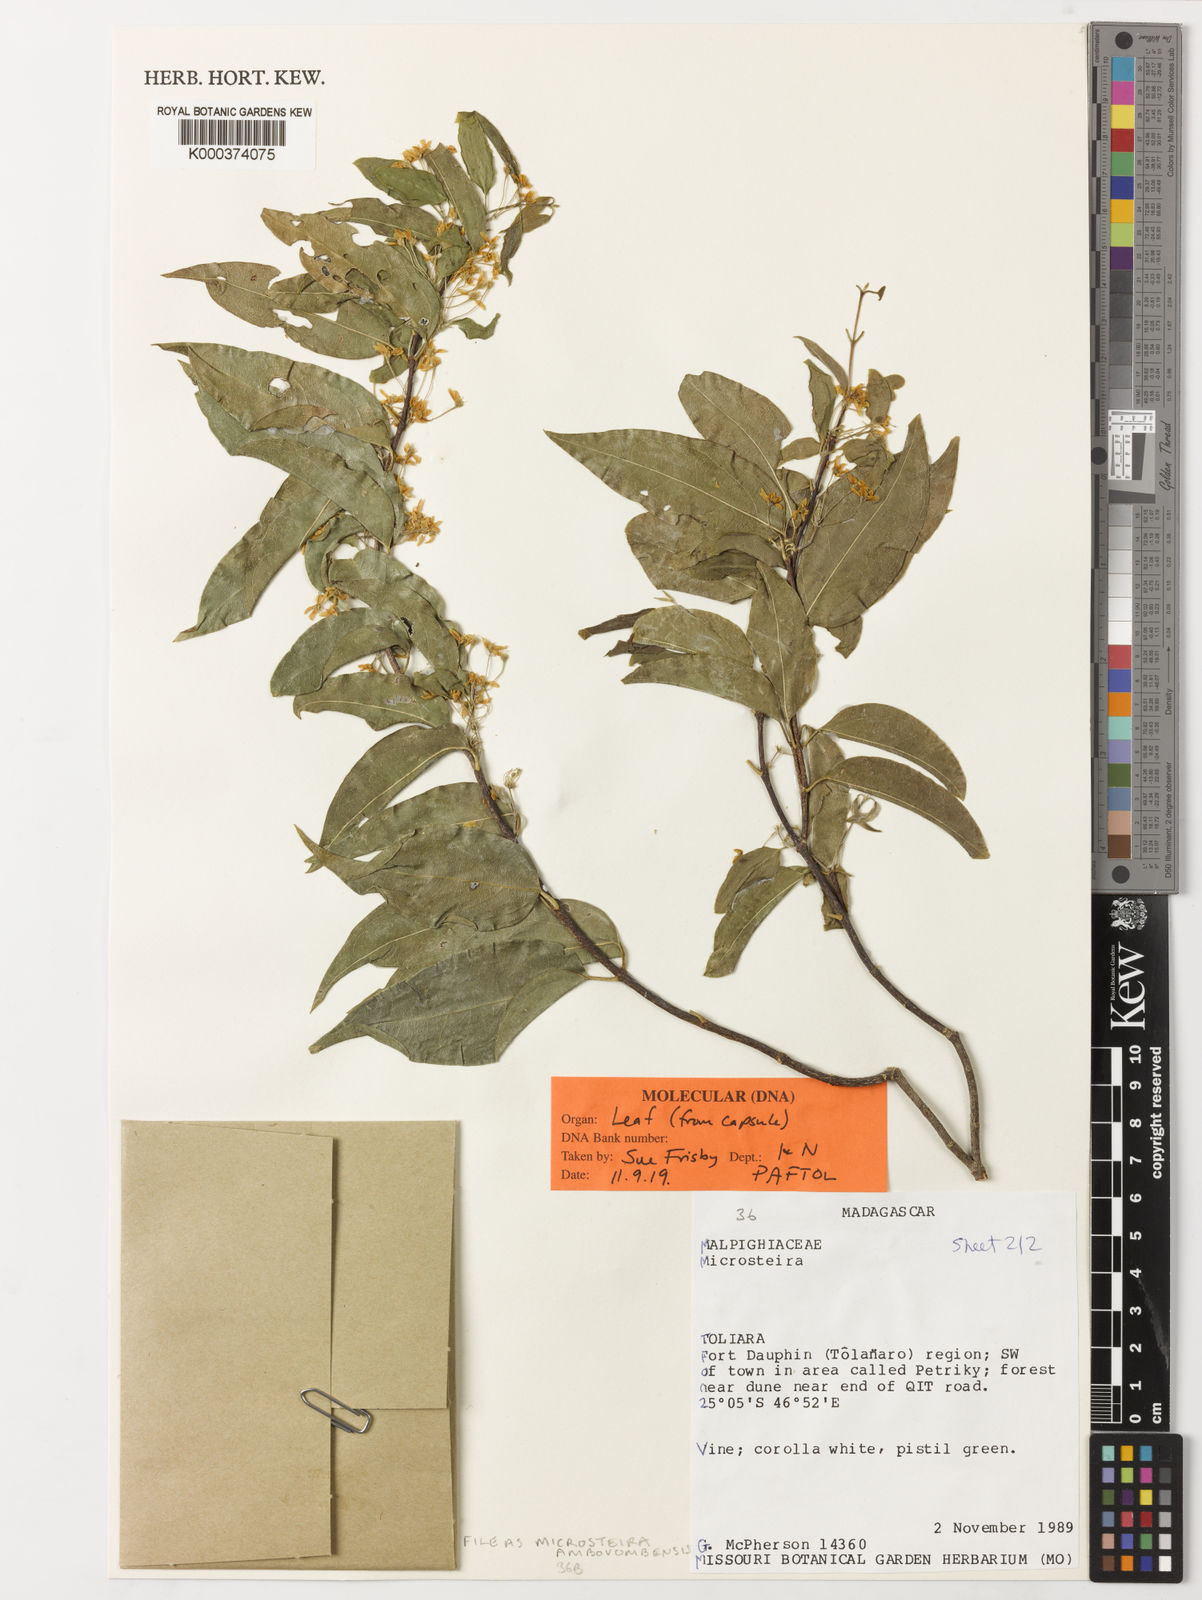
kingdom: Plantae
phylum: Tracheophyta
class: Magnoliopsida
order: Malpighiales
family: Malpighiaceae
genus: Microsteira
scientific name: Microsteira
